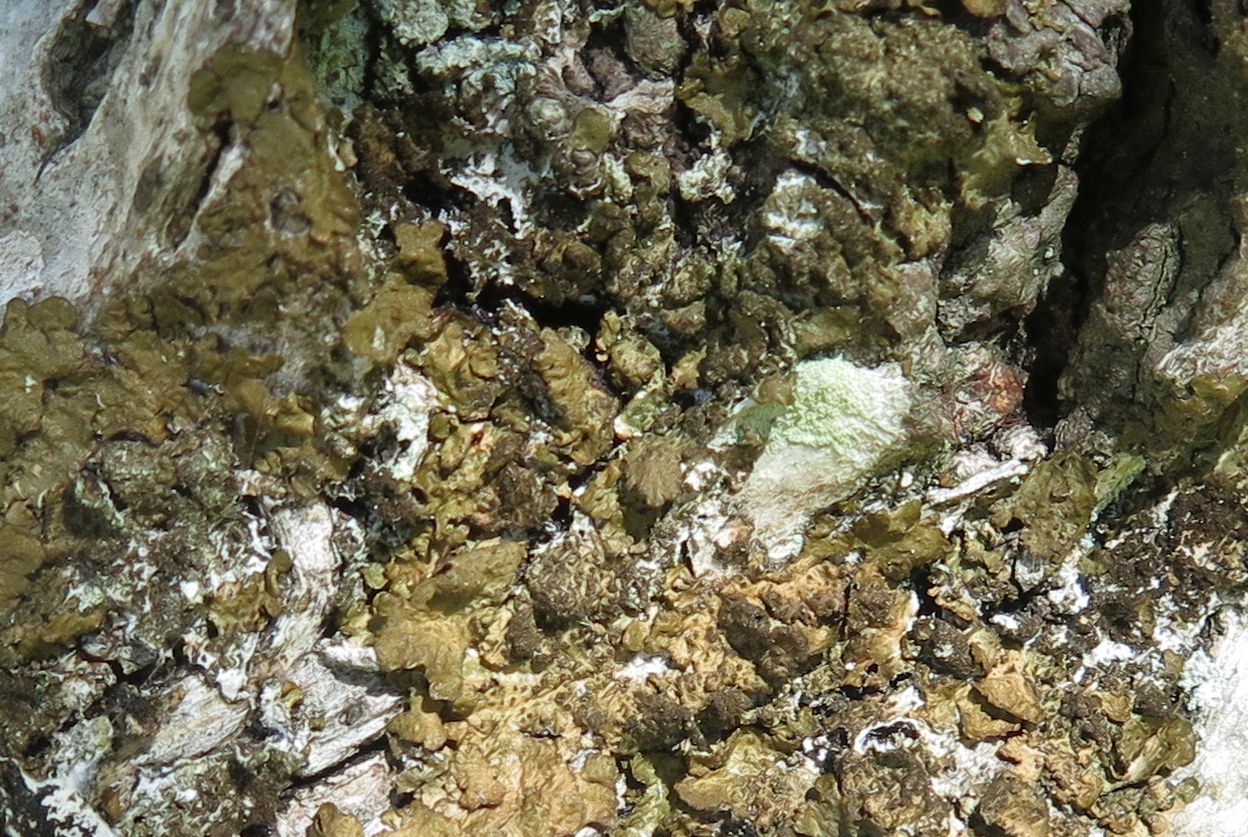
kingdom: Fungi
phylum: Ascomycota
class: Lecanoromycetes
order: Lecanorales
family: Parmeliaceae
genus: Melanelixia
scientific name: Melanelixia subaurifera
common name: guldpudret skållav
